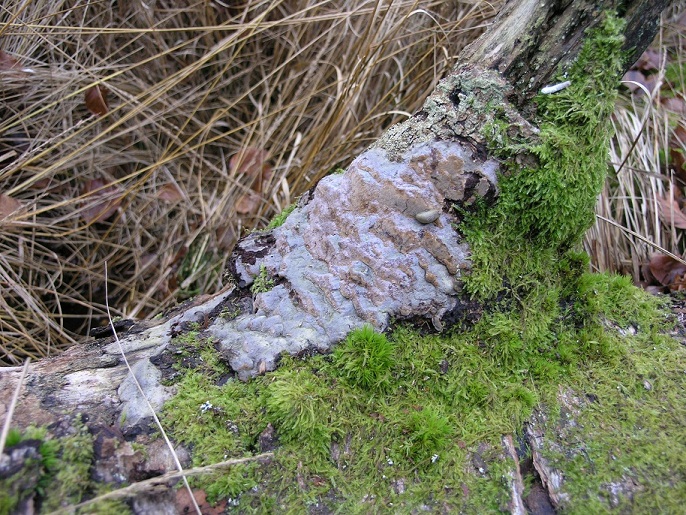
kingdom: Fungi
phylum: Basidiomycota
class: Agaricomycetes
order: Hymenochaetales
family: Hymenochaetaceae
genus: Phellinus
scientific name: Phellinus laevigatus
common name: glat ildporesvamp
